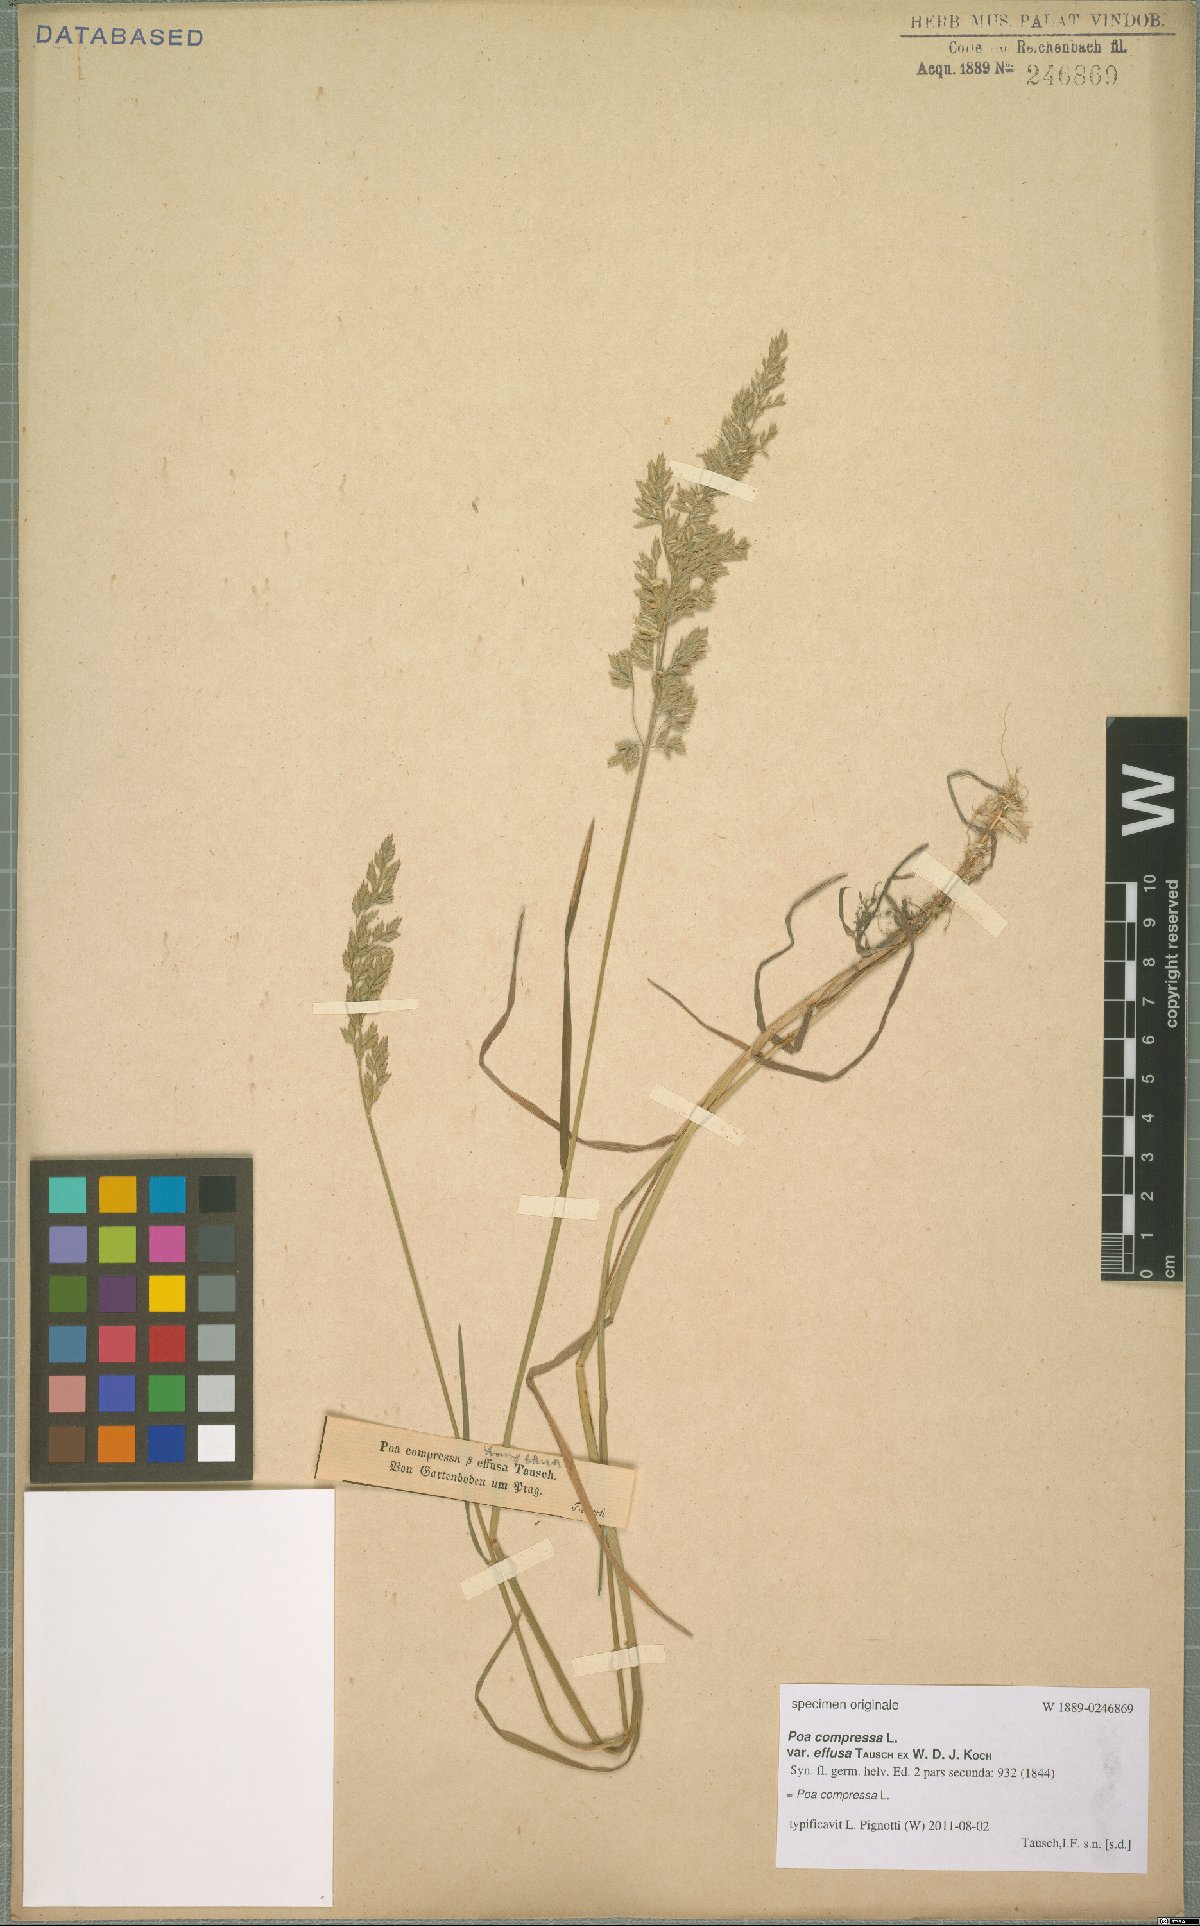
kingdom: Plantae
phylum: Tracheophyta
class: Liliopsida
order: Poales
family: Poaceae
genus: Poa
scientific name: Poa compressa
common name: Canada bluegrass
